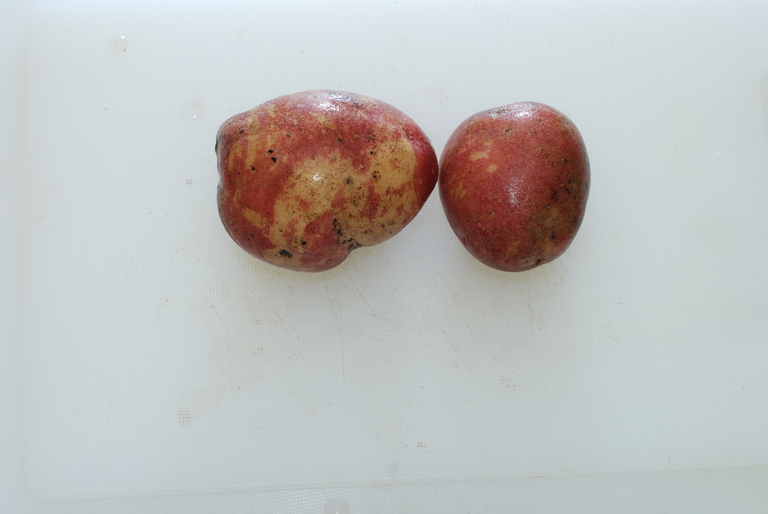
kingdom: Plantae
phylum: Tracheophyta
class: Magnoliopsida
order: Solanales
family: Solanaceae
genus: Solanum
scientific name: Solanum tuberosum
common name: Potato
